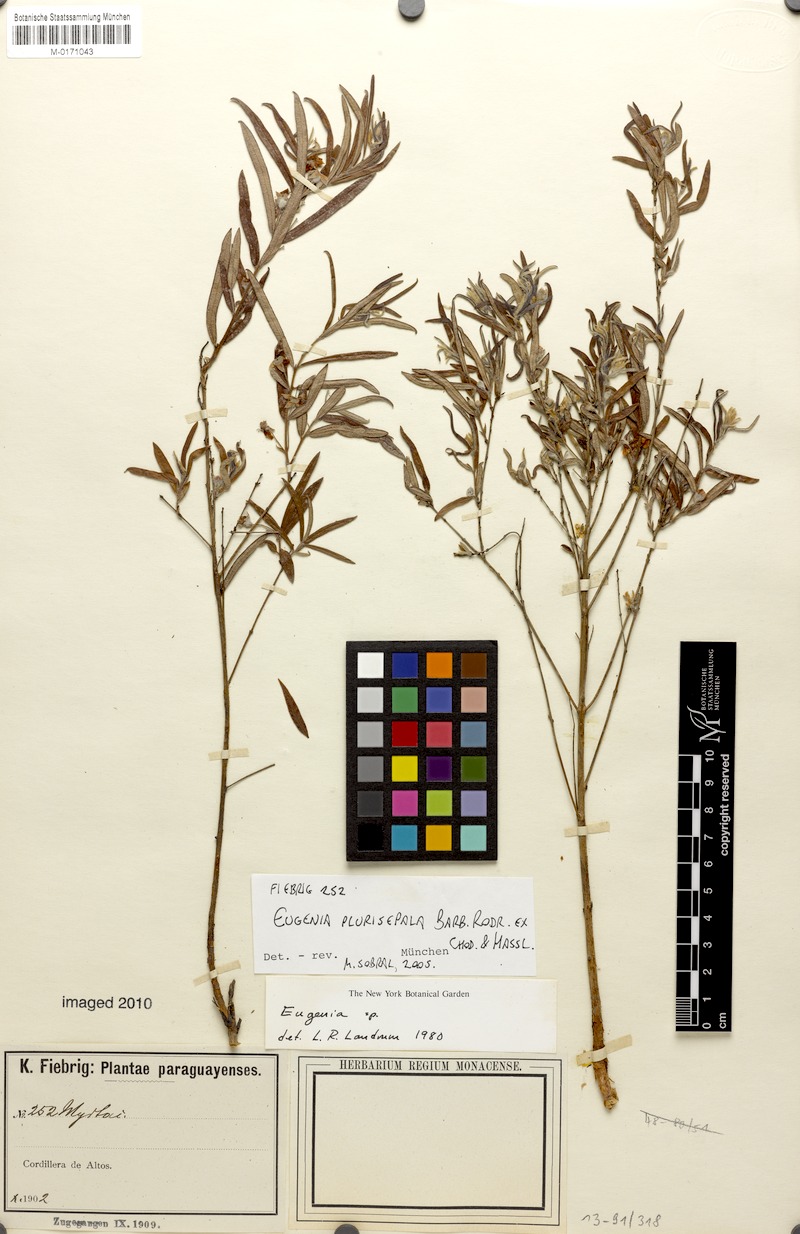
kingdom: Plantae
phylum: Tracheophyta
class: Magnoliopsida
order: Myrtales
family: Myrtaceae
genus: Eugenia
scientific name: Eugenia anomala
